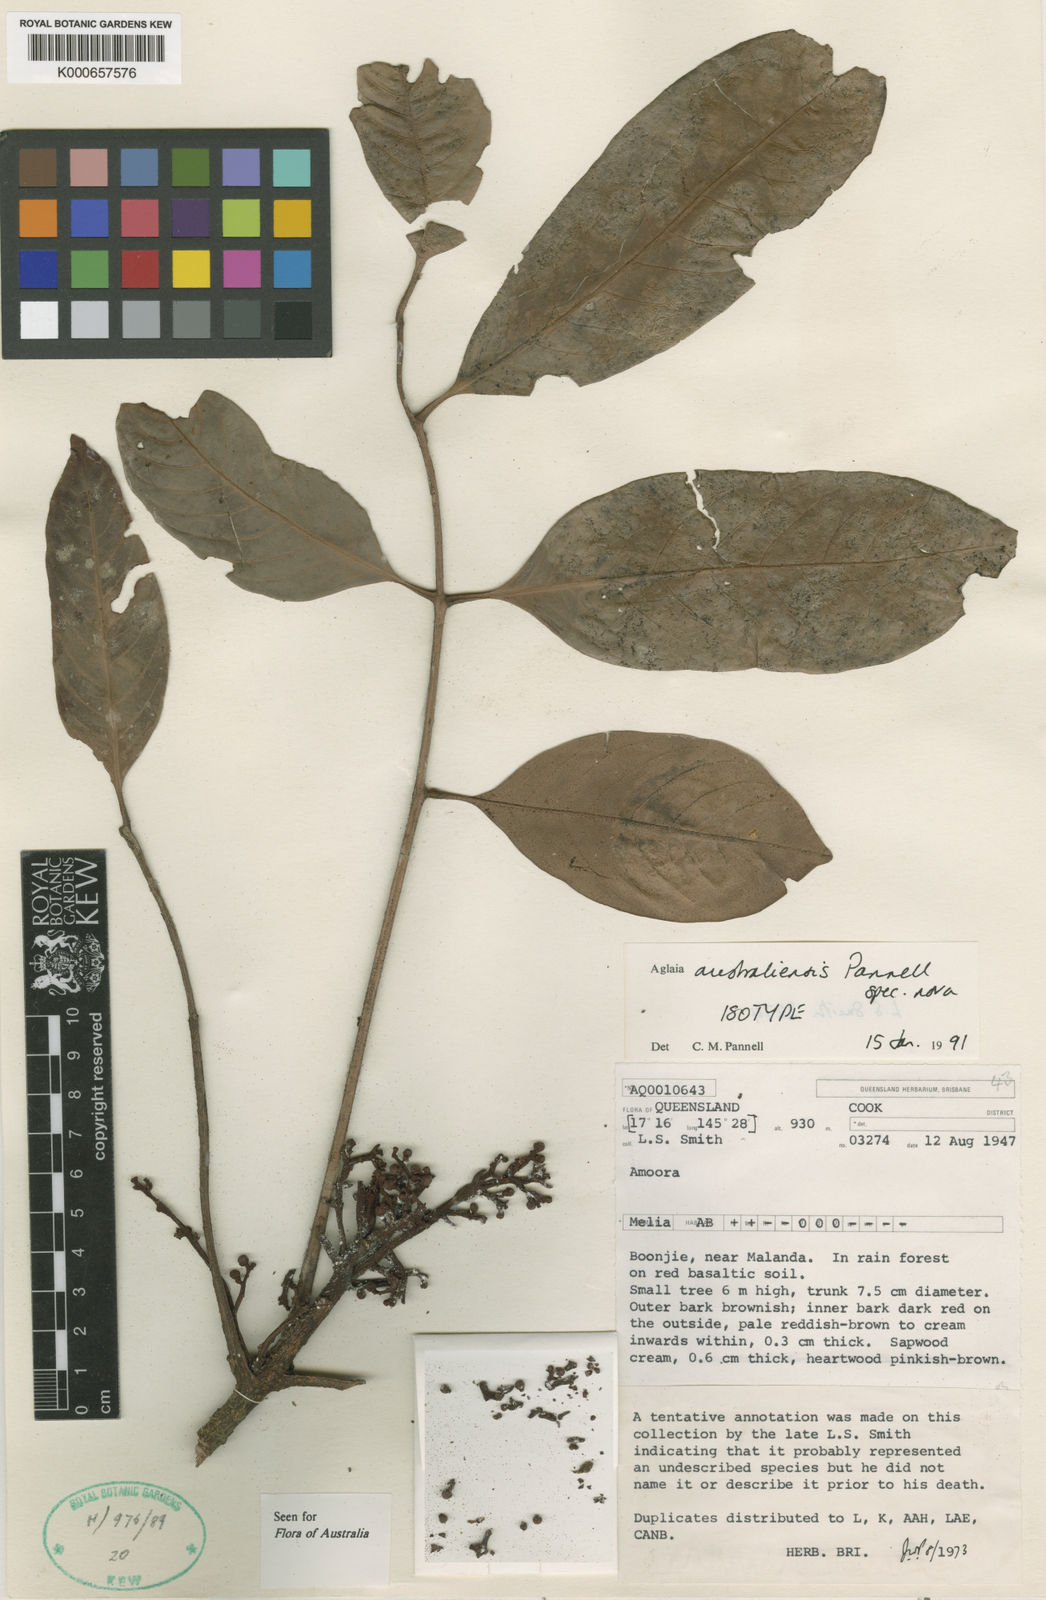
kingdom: Plantae
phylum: Tracheophyta
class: Magnoliopsida
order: Sapindales
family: Meliaceae
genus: Aglaia
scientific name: Aglaia australiensis
